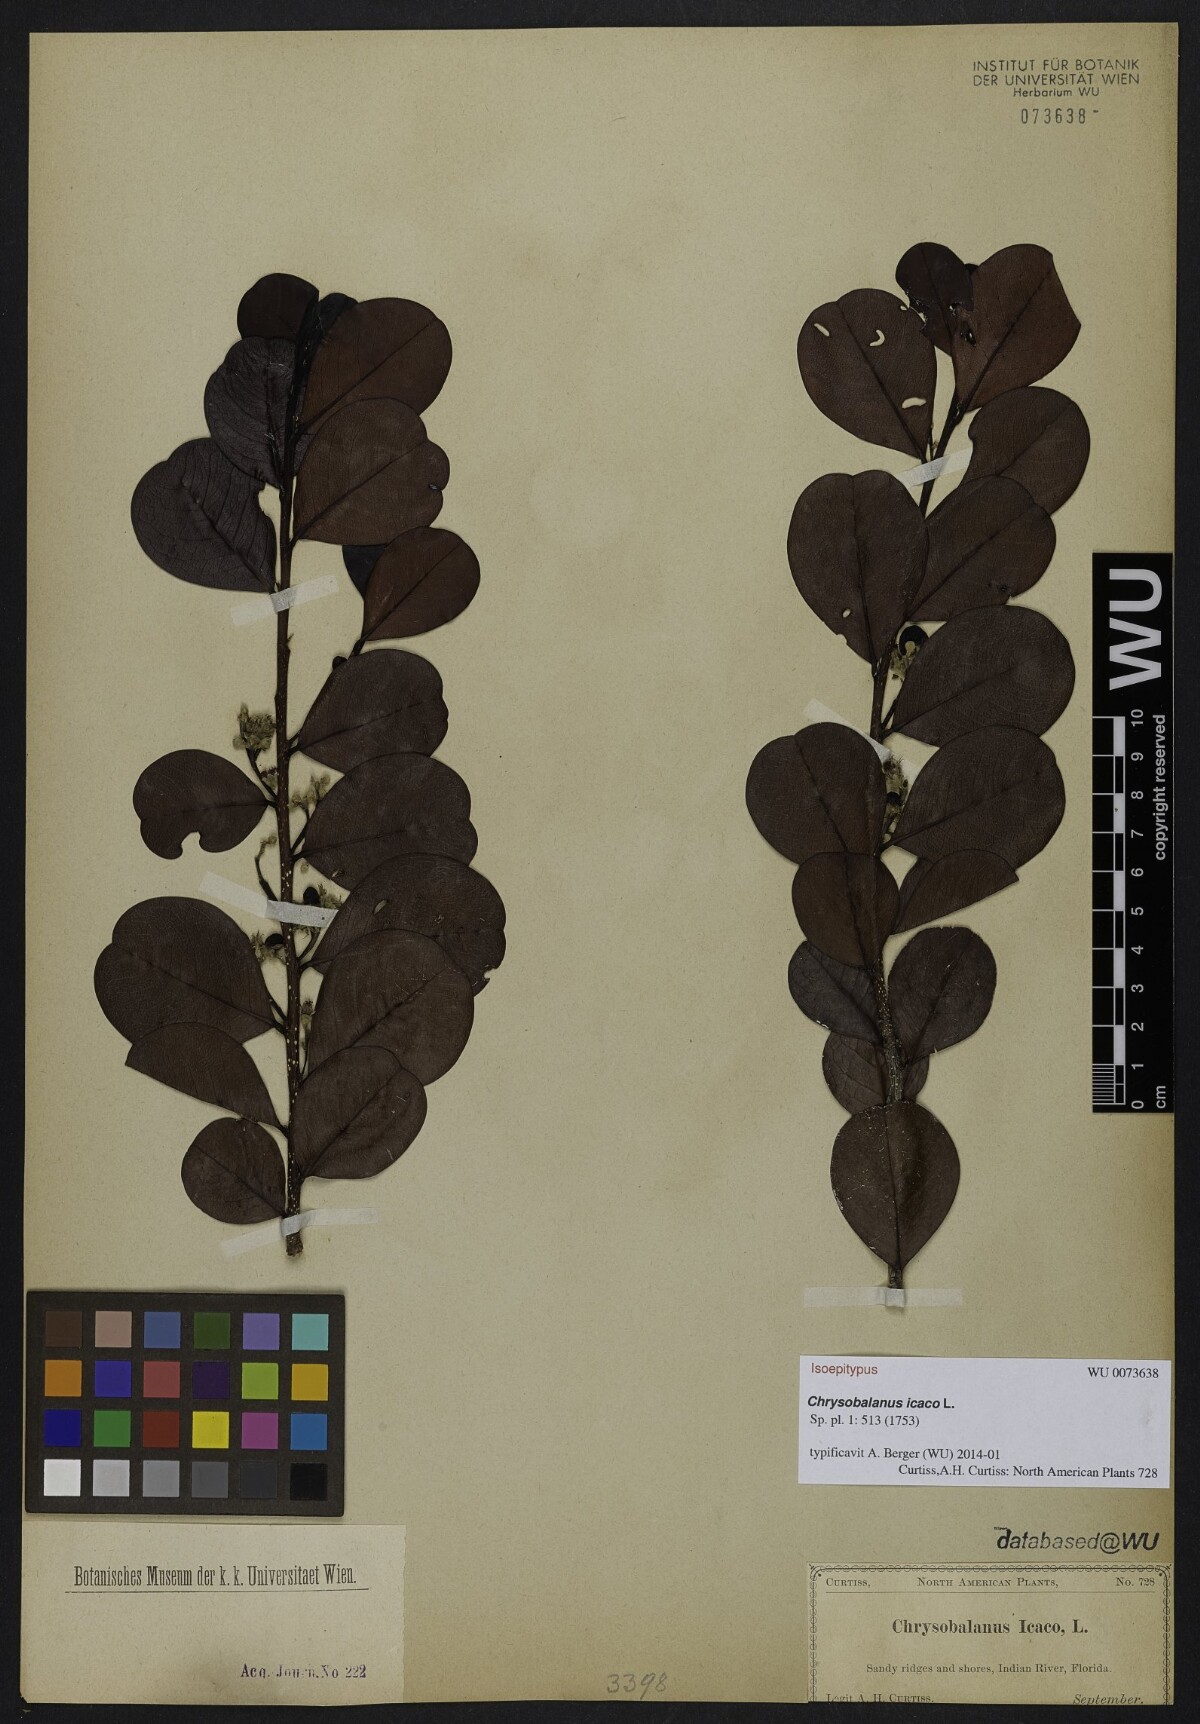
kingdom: Plantae
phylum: Tracheophyta
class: Magnoliopsida
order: Malpighiales
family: Chrysobalanaceae
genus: Chrysobalanus
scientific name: Chrysobalanus icaco
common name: Coco plum
